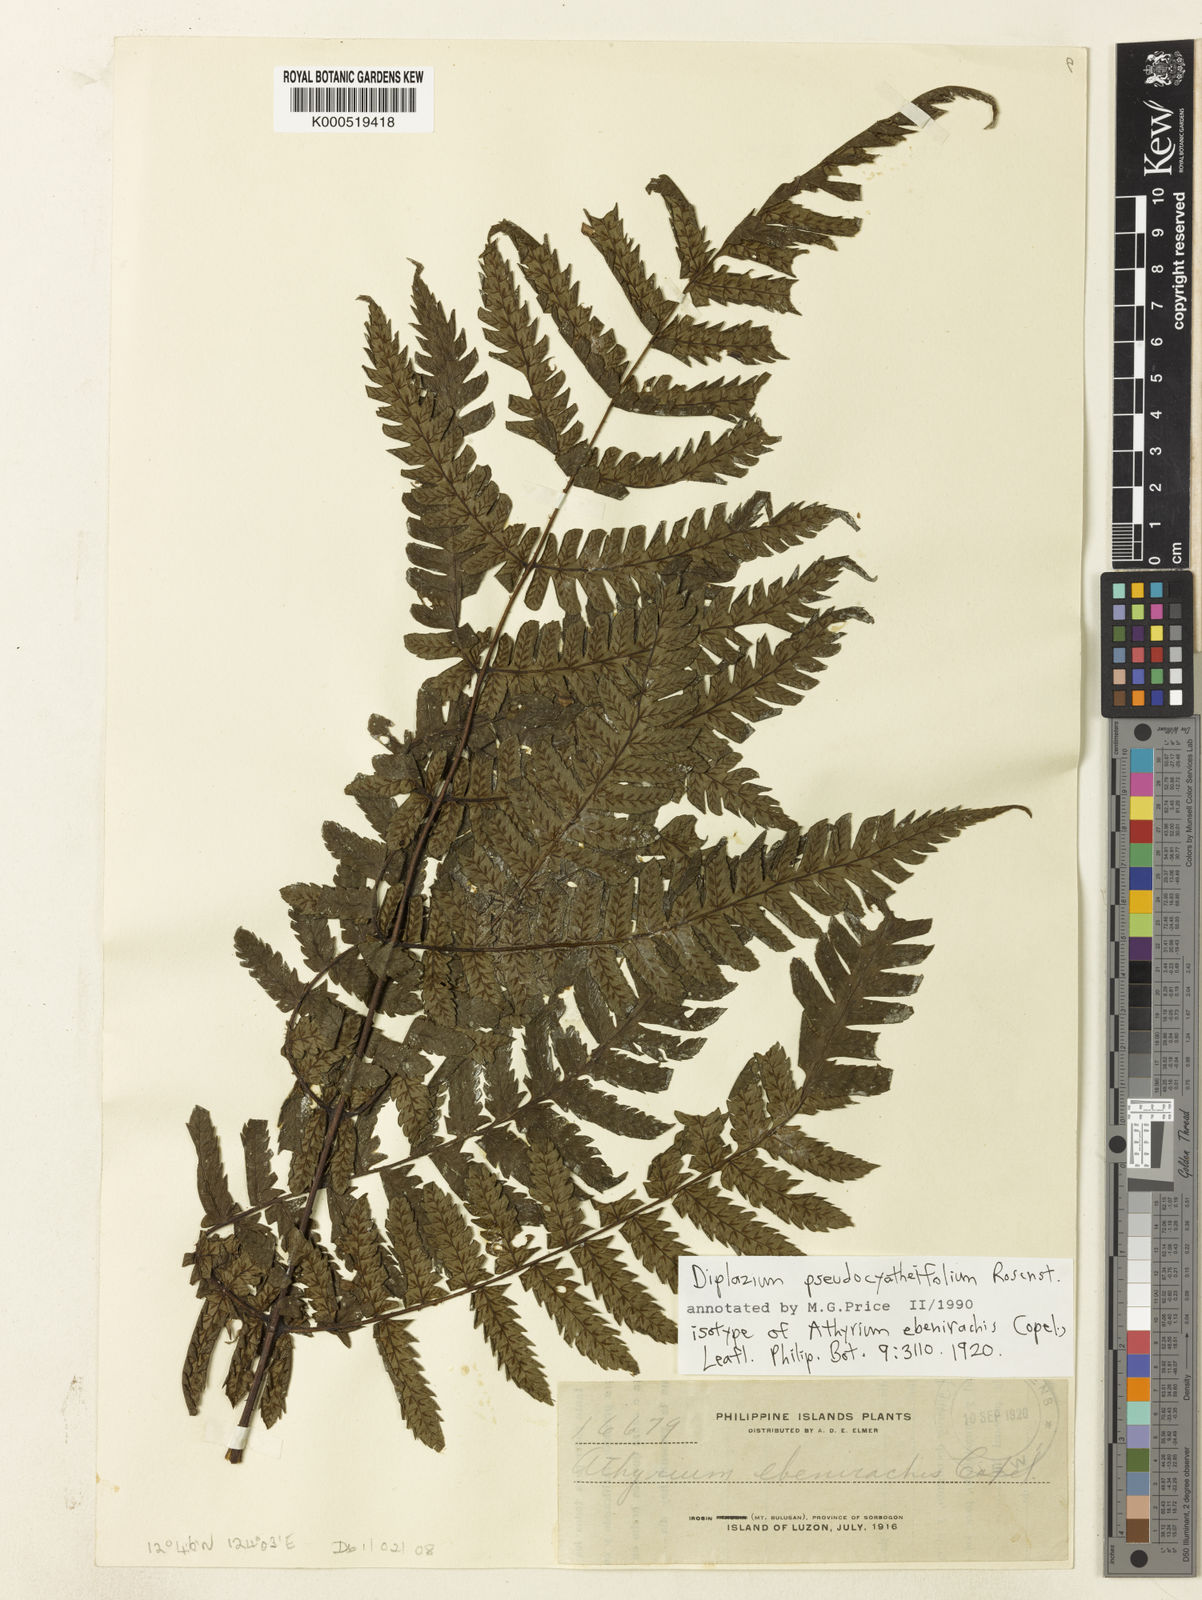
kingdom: Plantae
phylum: Tracheophyta
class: Polypodiopsida
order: Polypodiales
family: Athyriaceae
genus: Diplazium
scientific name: Diplazium pseudocyatheifolium
